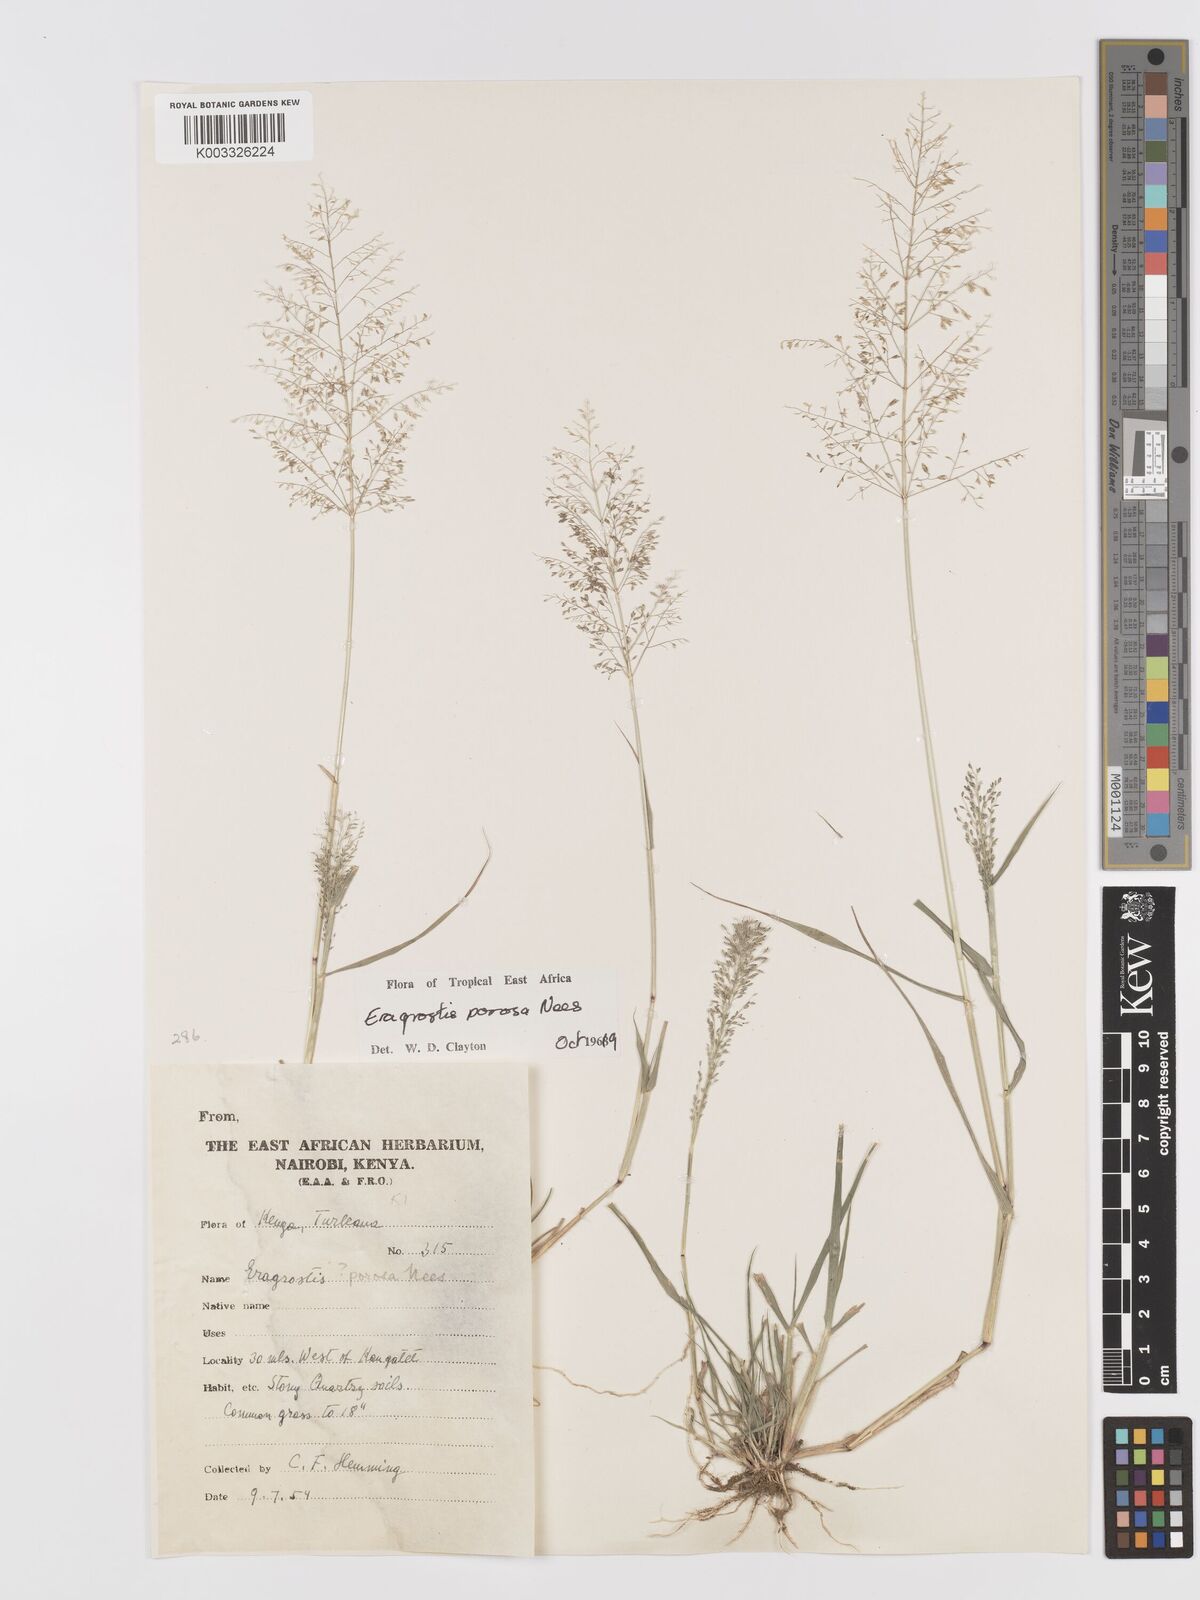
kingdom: Plantae
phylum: Tracheophyta
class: Liliopsida
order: Poales
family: Poaceae
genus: Eragrostis
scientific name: Eragrostis porosa
